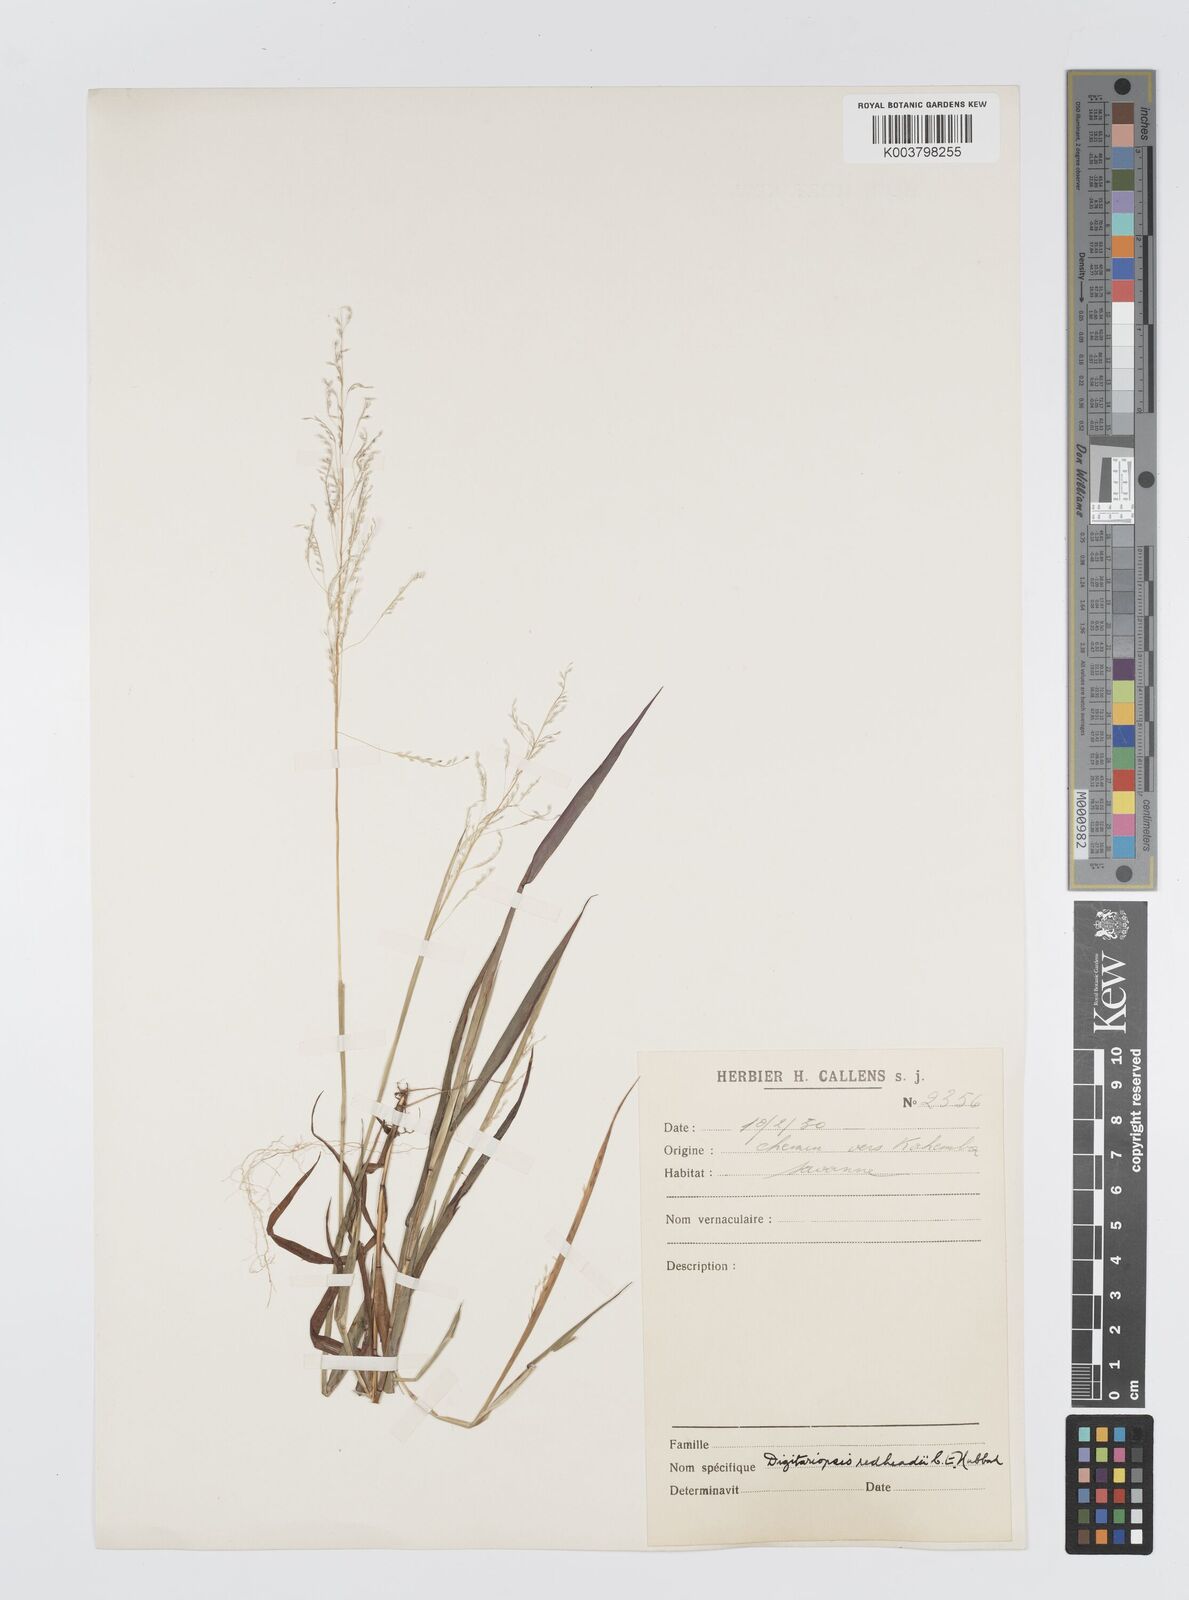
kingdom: Plantae
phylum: Tracheophyta
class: Liliopsida
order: Poales
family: Poaceae
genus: Digitaria
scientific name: Digitaria redheadii
